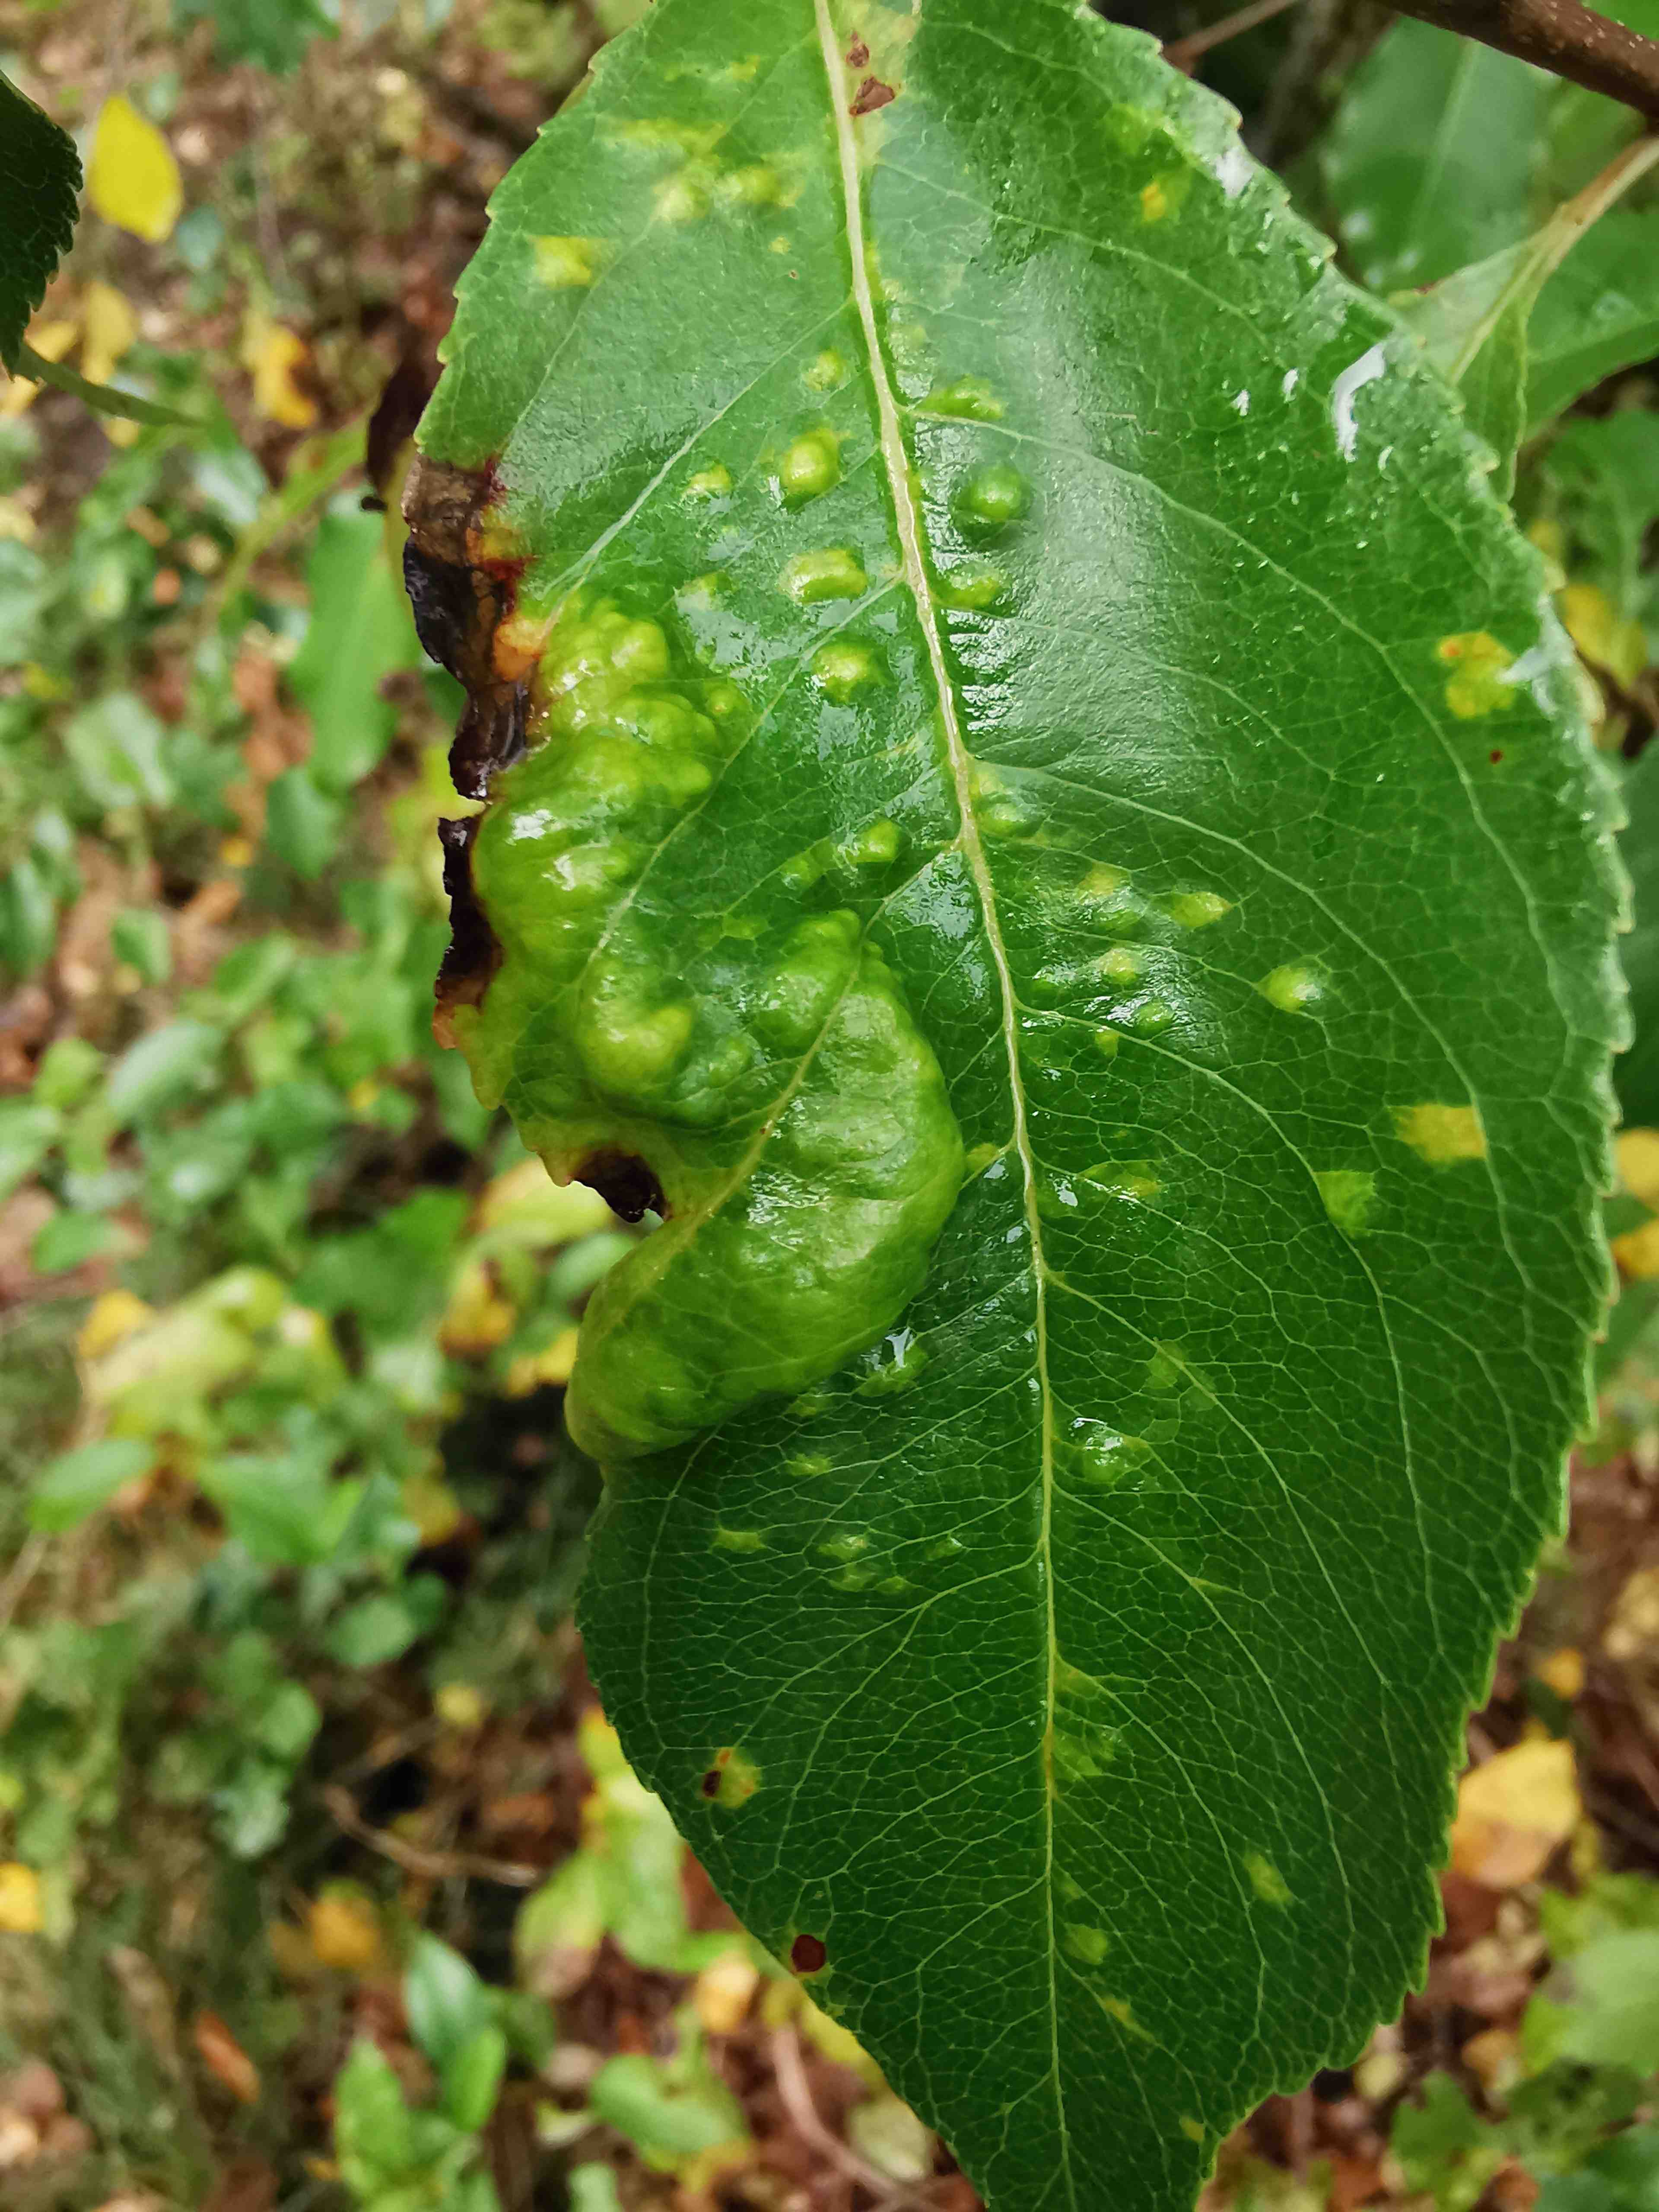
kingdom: Fungi
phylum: Ascomycota
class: Taphrinomycetes
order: Taphrinales
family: Taphrinaceae
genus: Taphrina
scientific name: Taphrina farlowii
